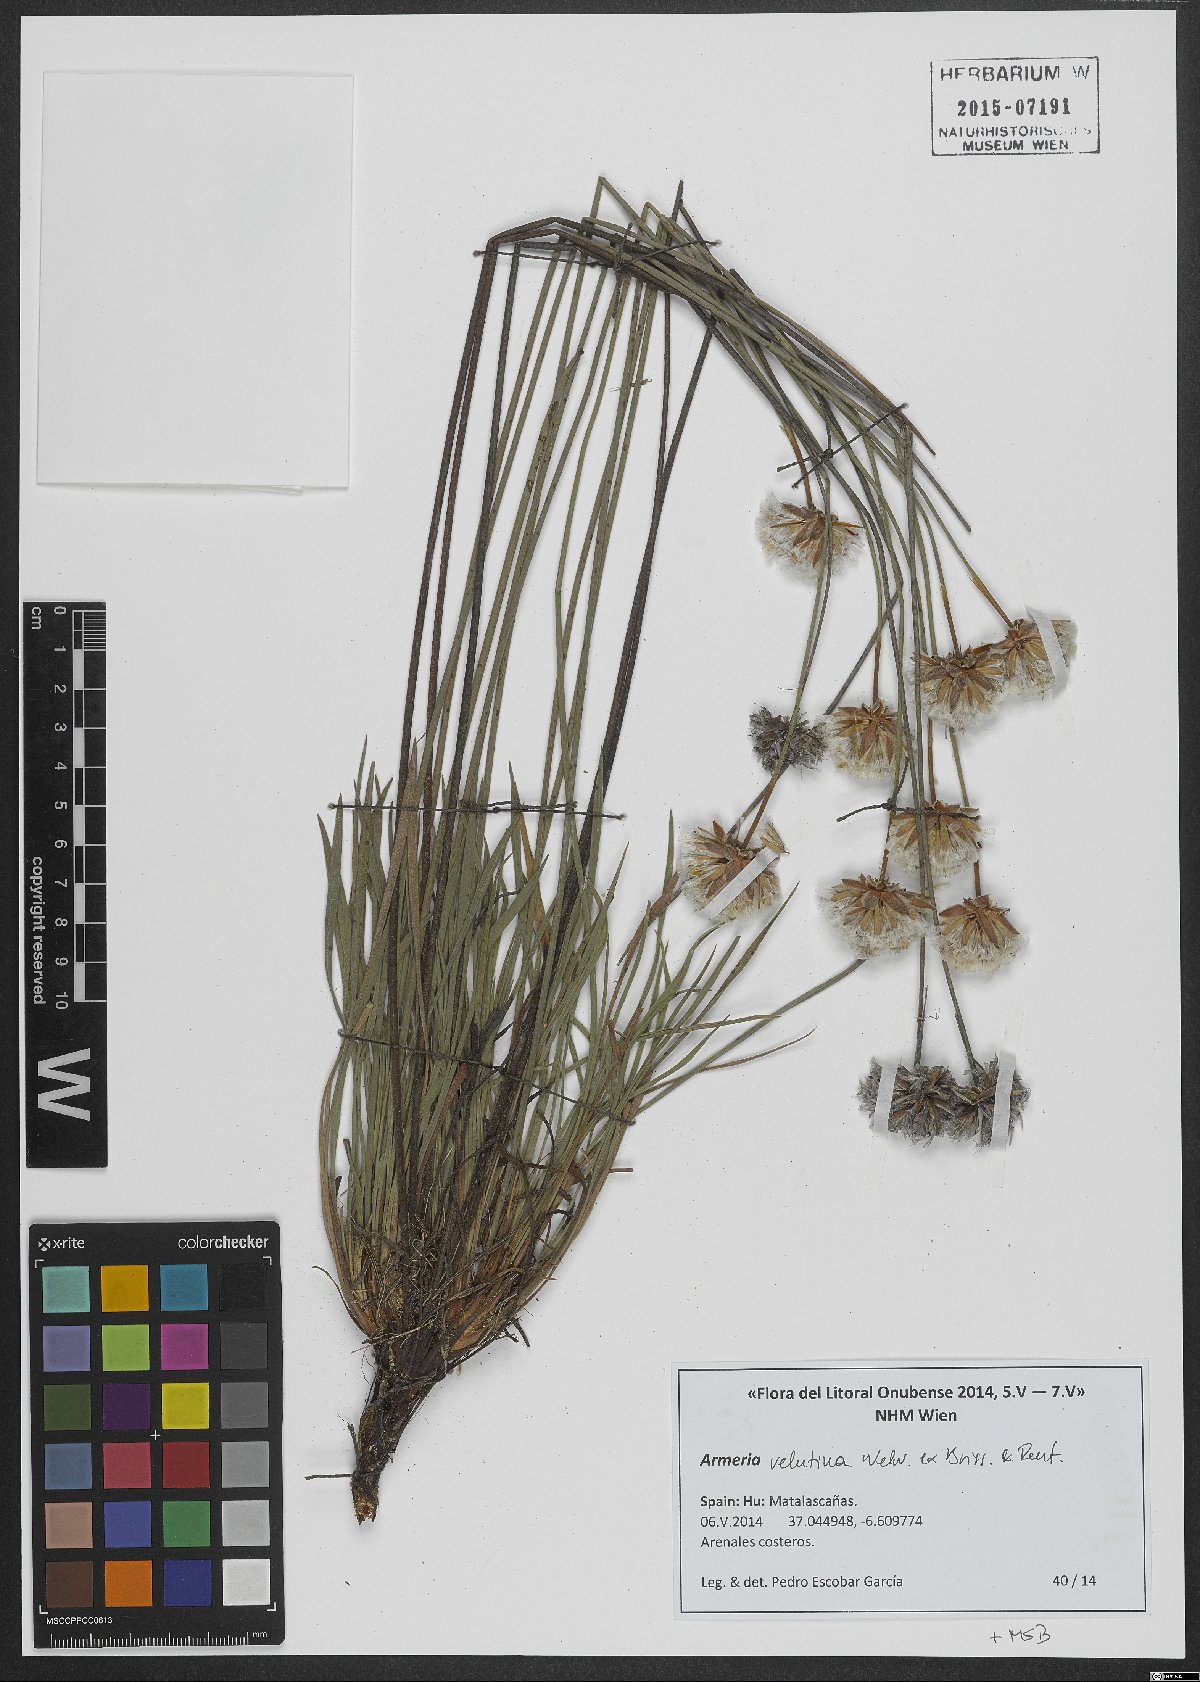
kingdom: Plantae
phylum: Tracheophyta
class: Magnoliopsida
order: Caryophyllales
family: Plumbaginaceae
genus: Armeria
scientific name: Armeria velutina
